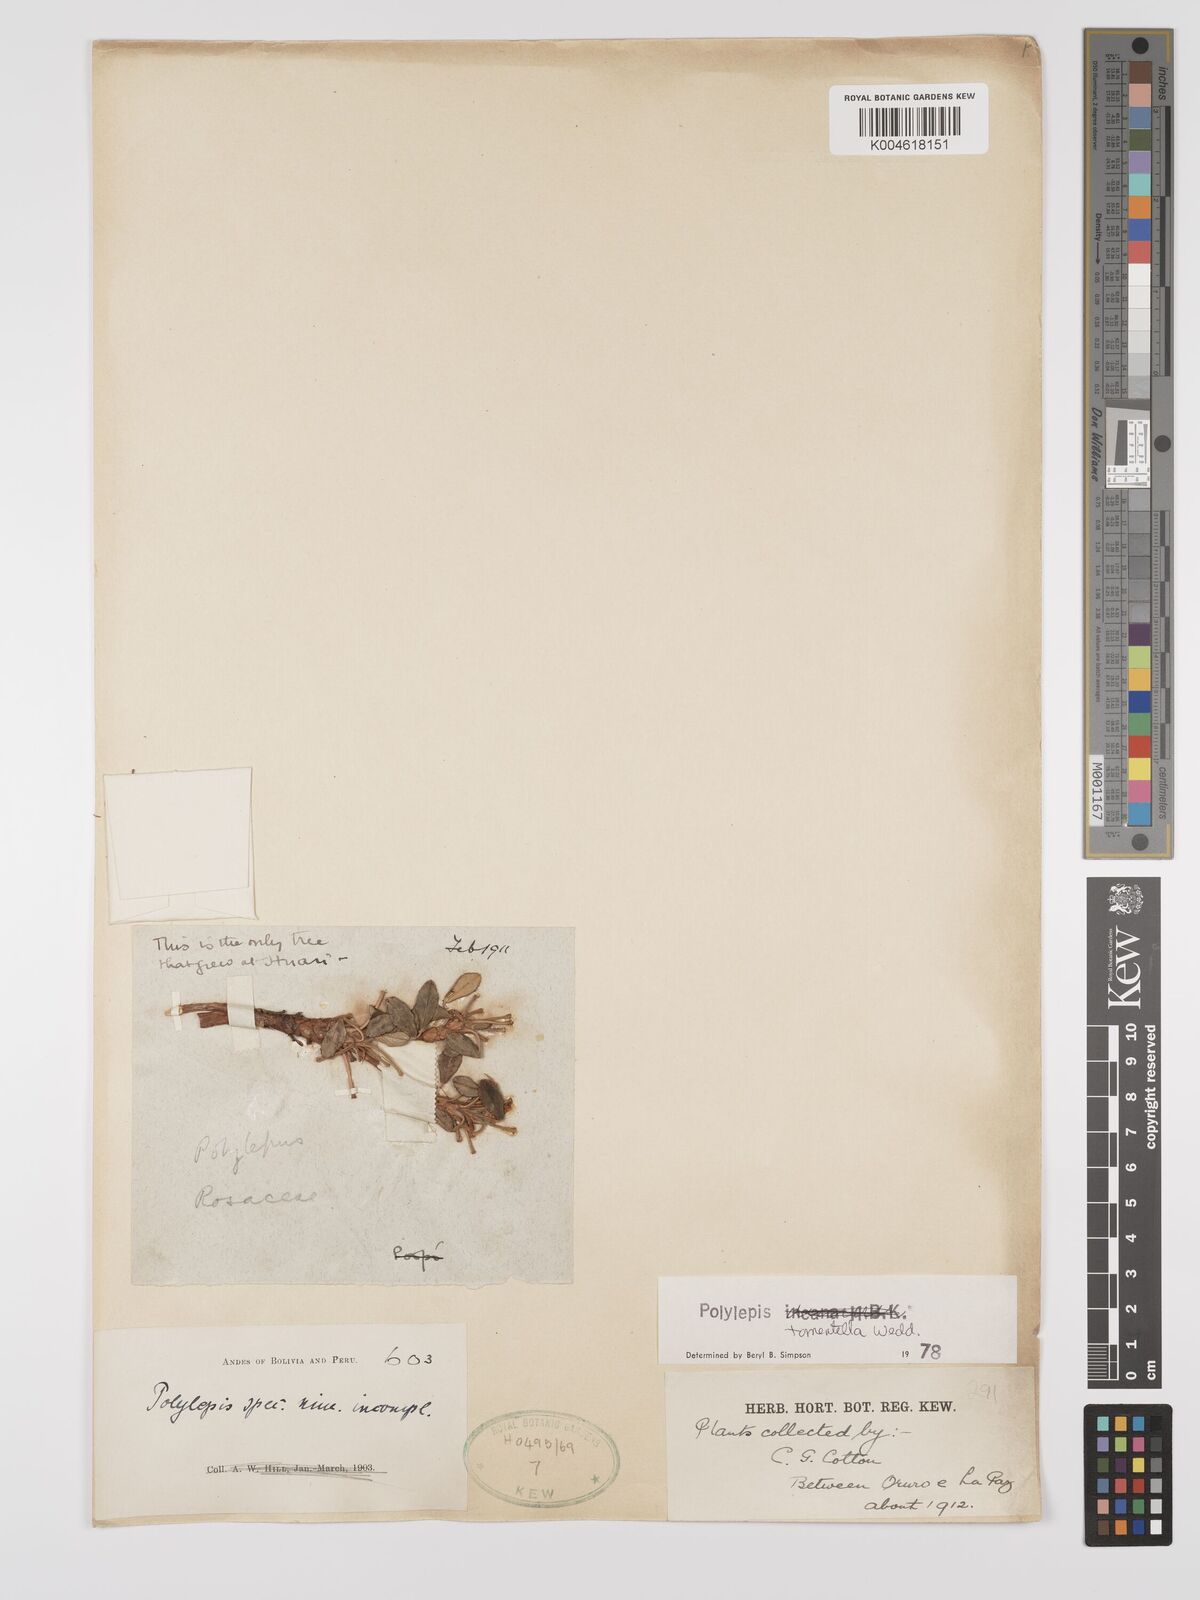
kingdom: Plantae
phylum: Tracheophyta
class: Magnoliopsida
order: Rosales
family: Rosaceae
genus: Polylepis
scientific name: Polylepis tomentella
